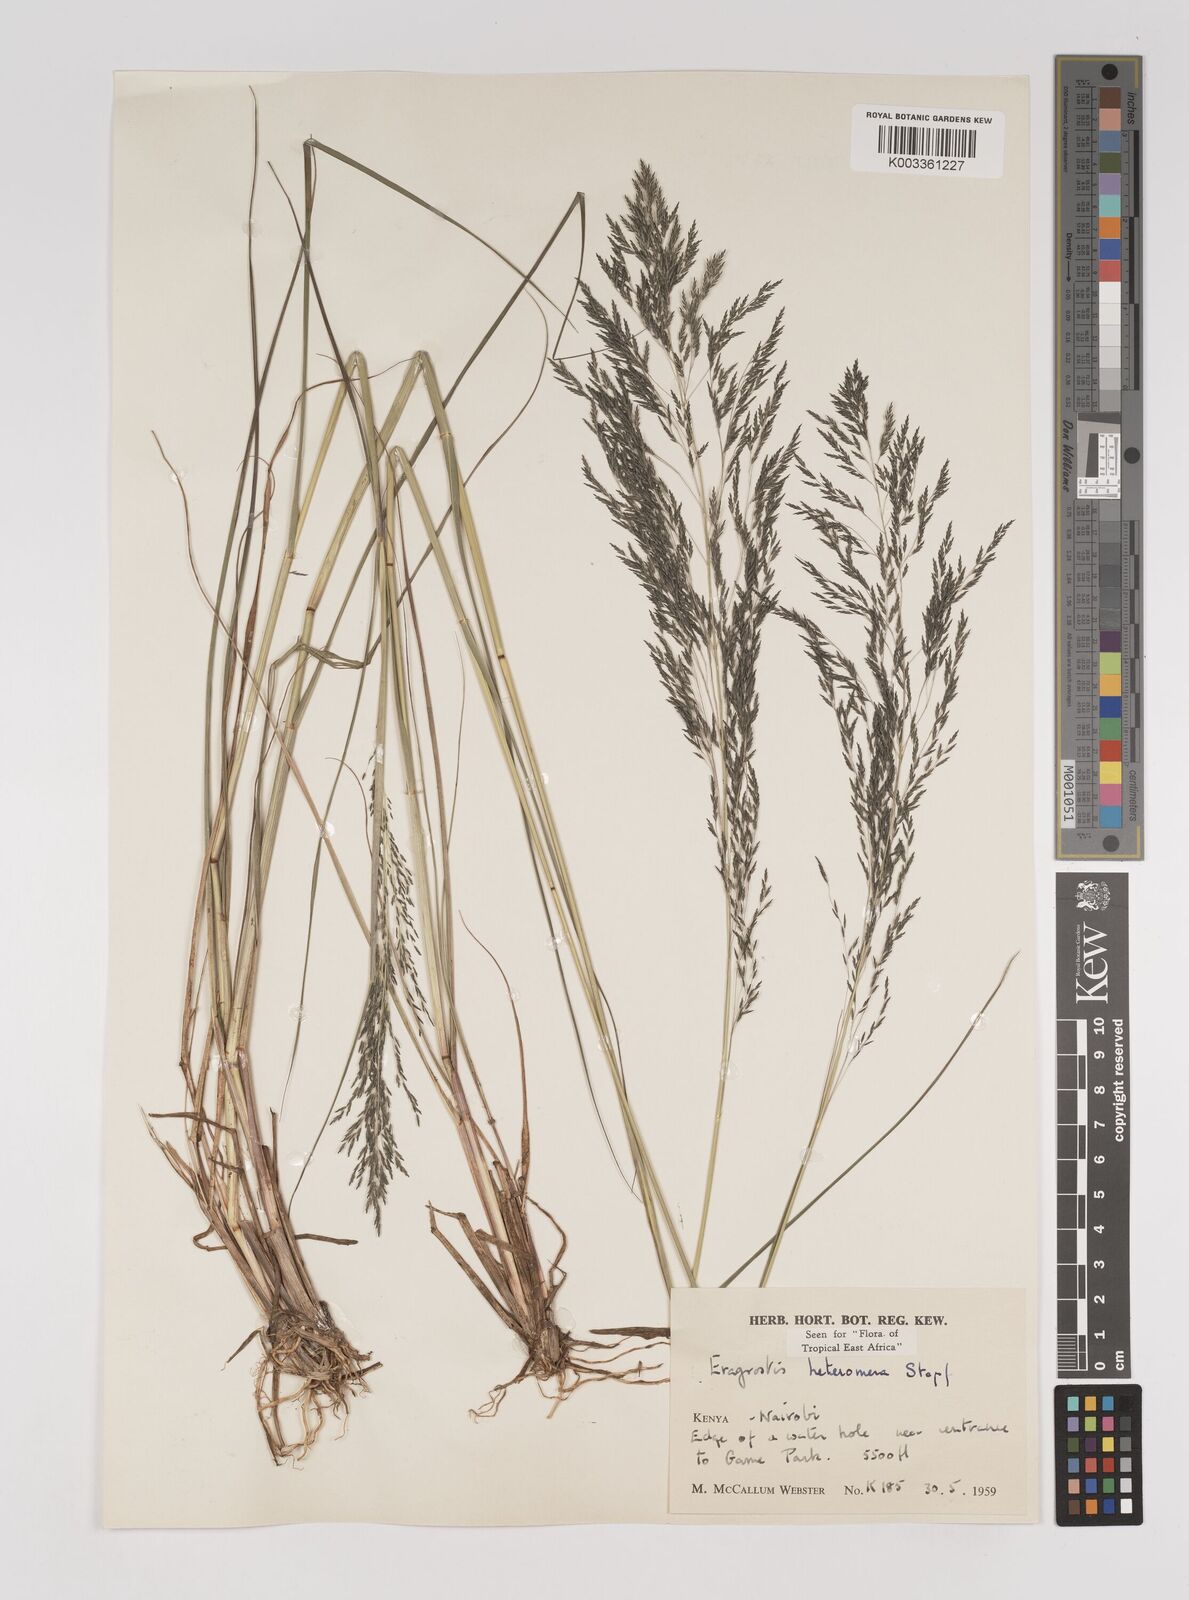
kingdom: Plantae
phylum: Tracheophyta
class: Liliopsida
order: Poales
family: Poaceae
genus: Eragrostis
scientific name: Eragrostis heteromera
